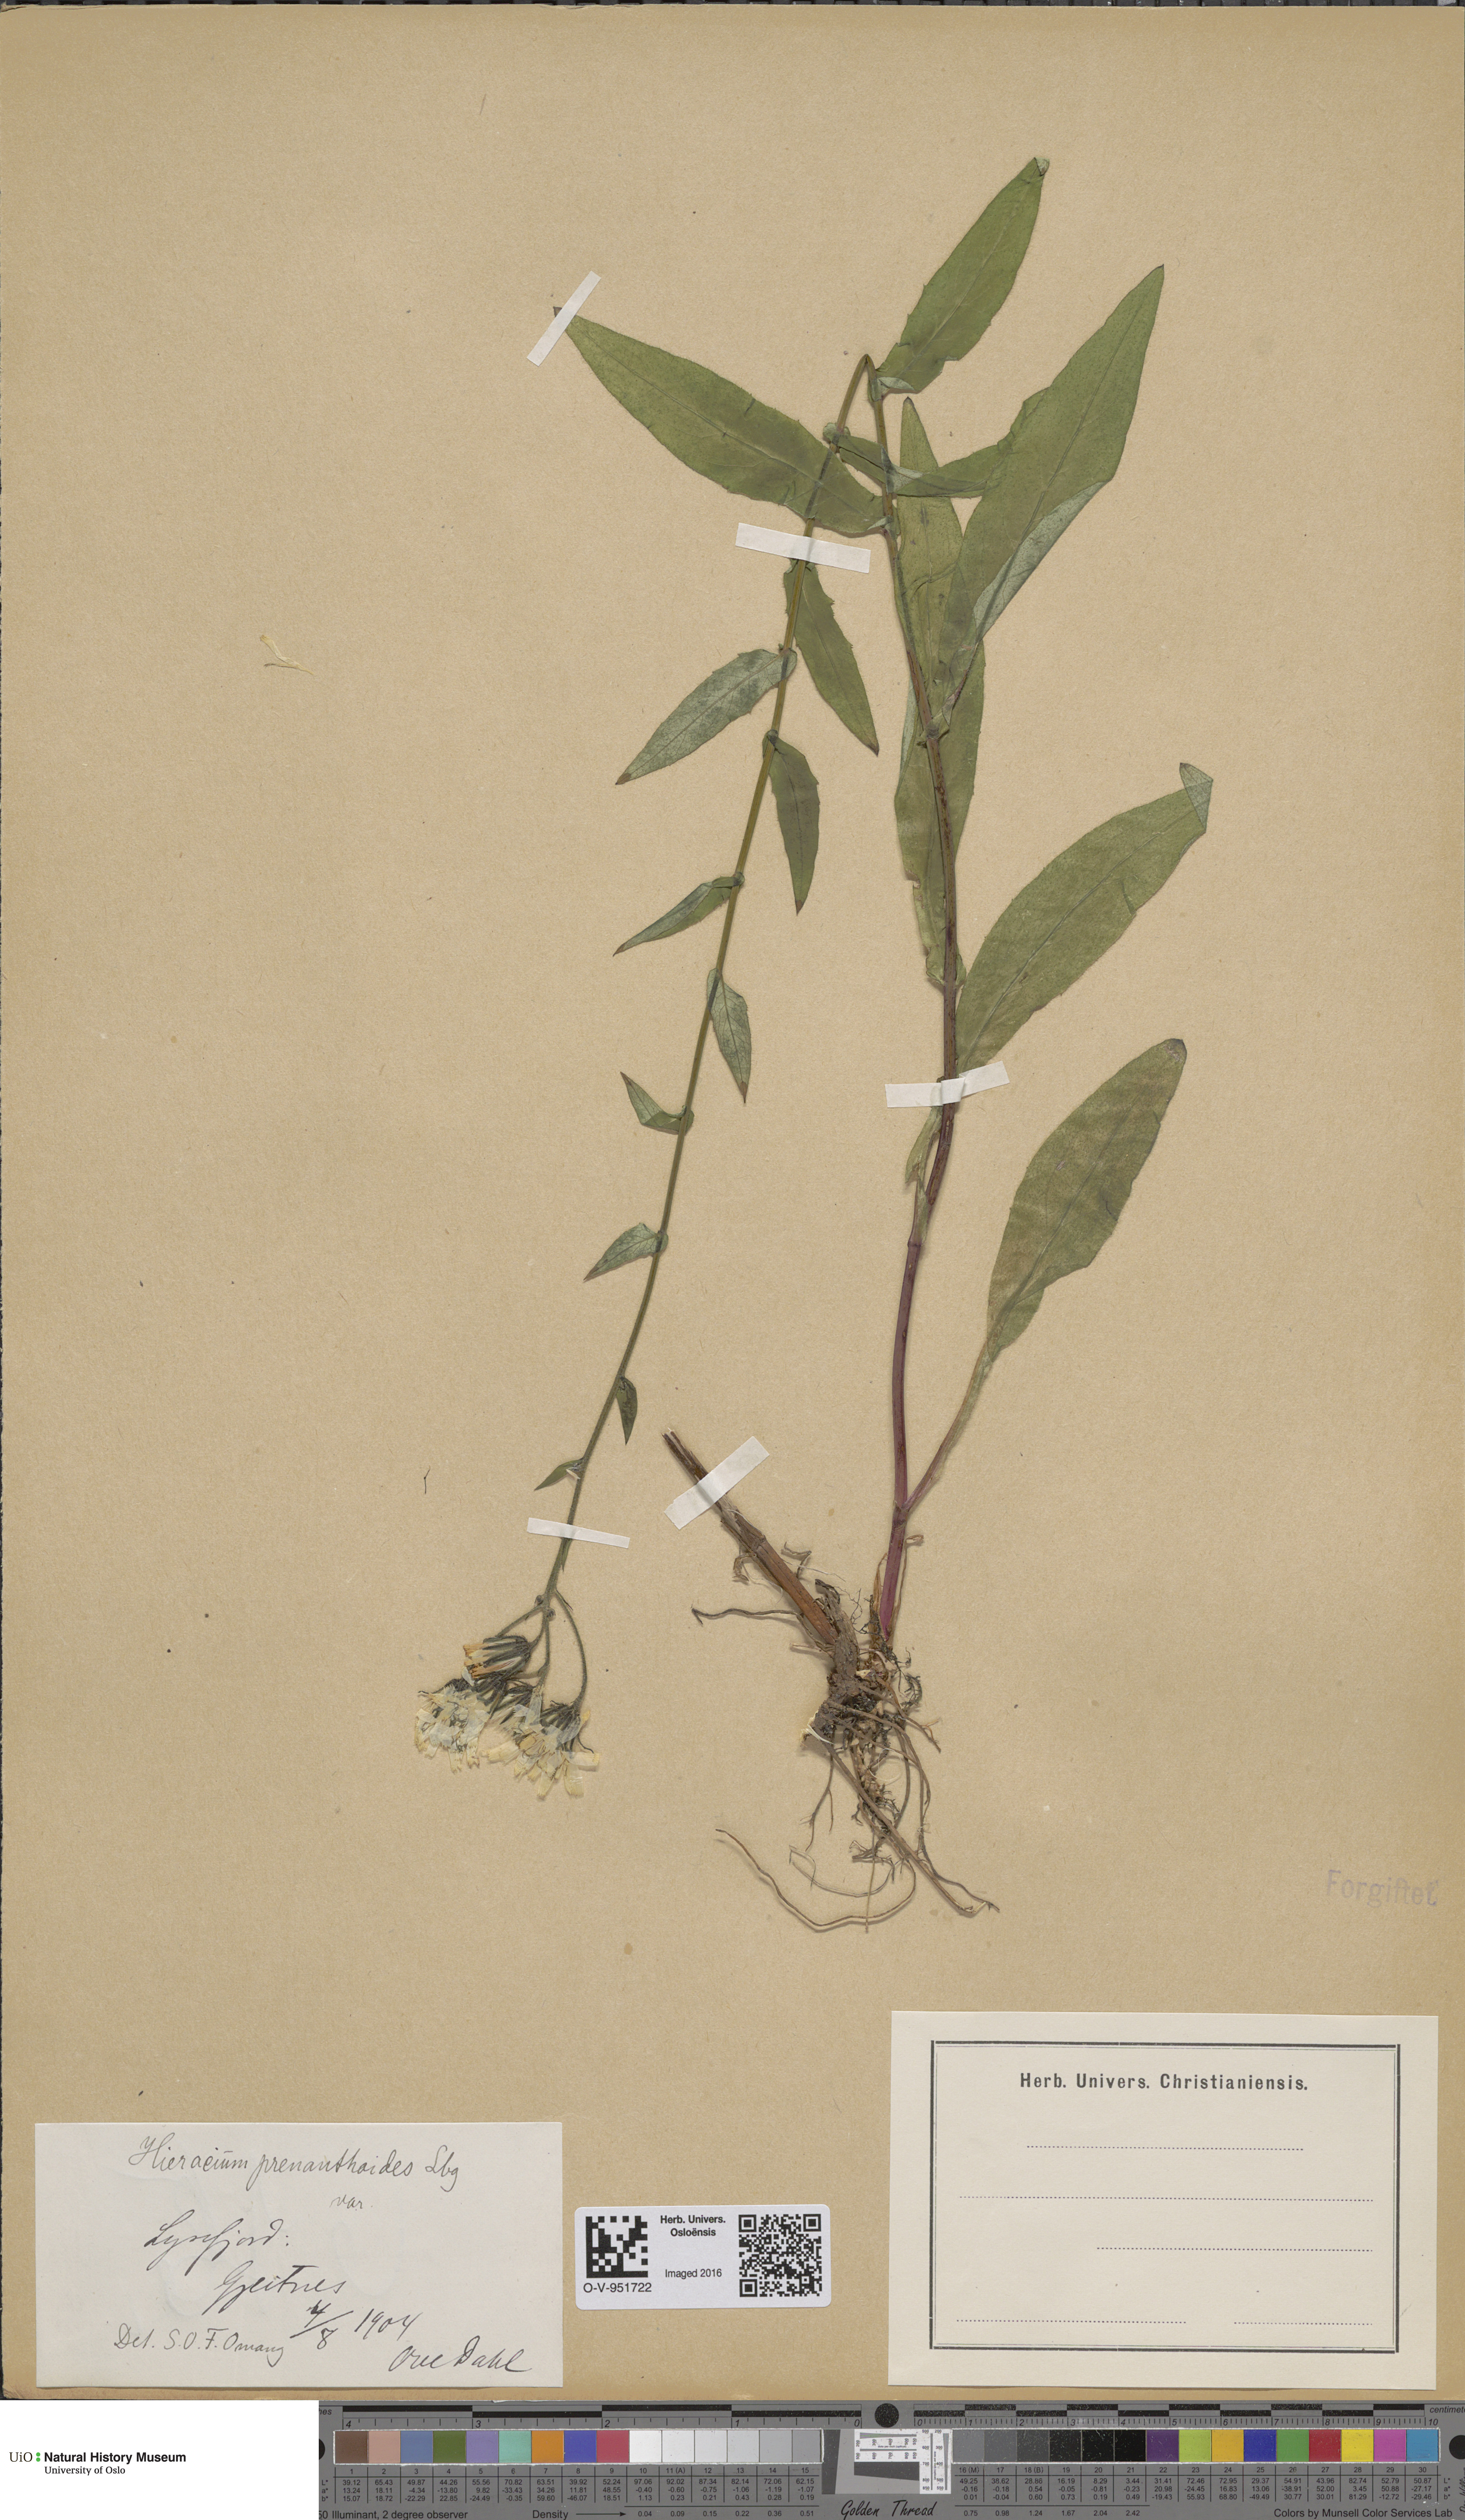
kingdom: Plantae
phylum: Tracheophyta
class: Magnoliopsida
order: Asterales
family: Asteraceae
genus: Hieracium
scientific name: Hieracium prenanthoides
